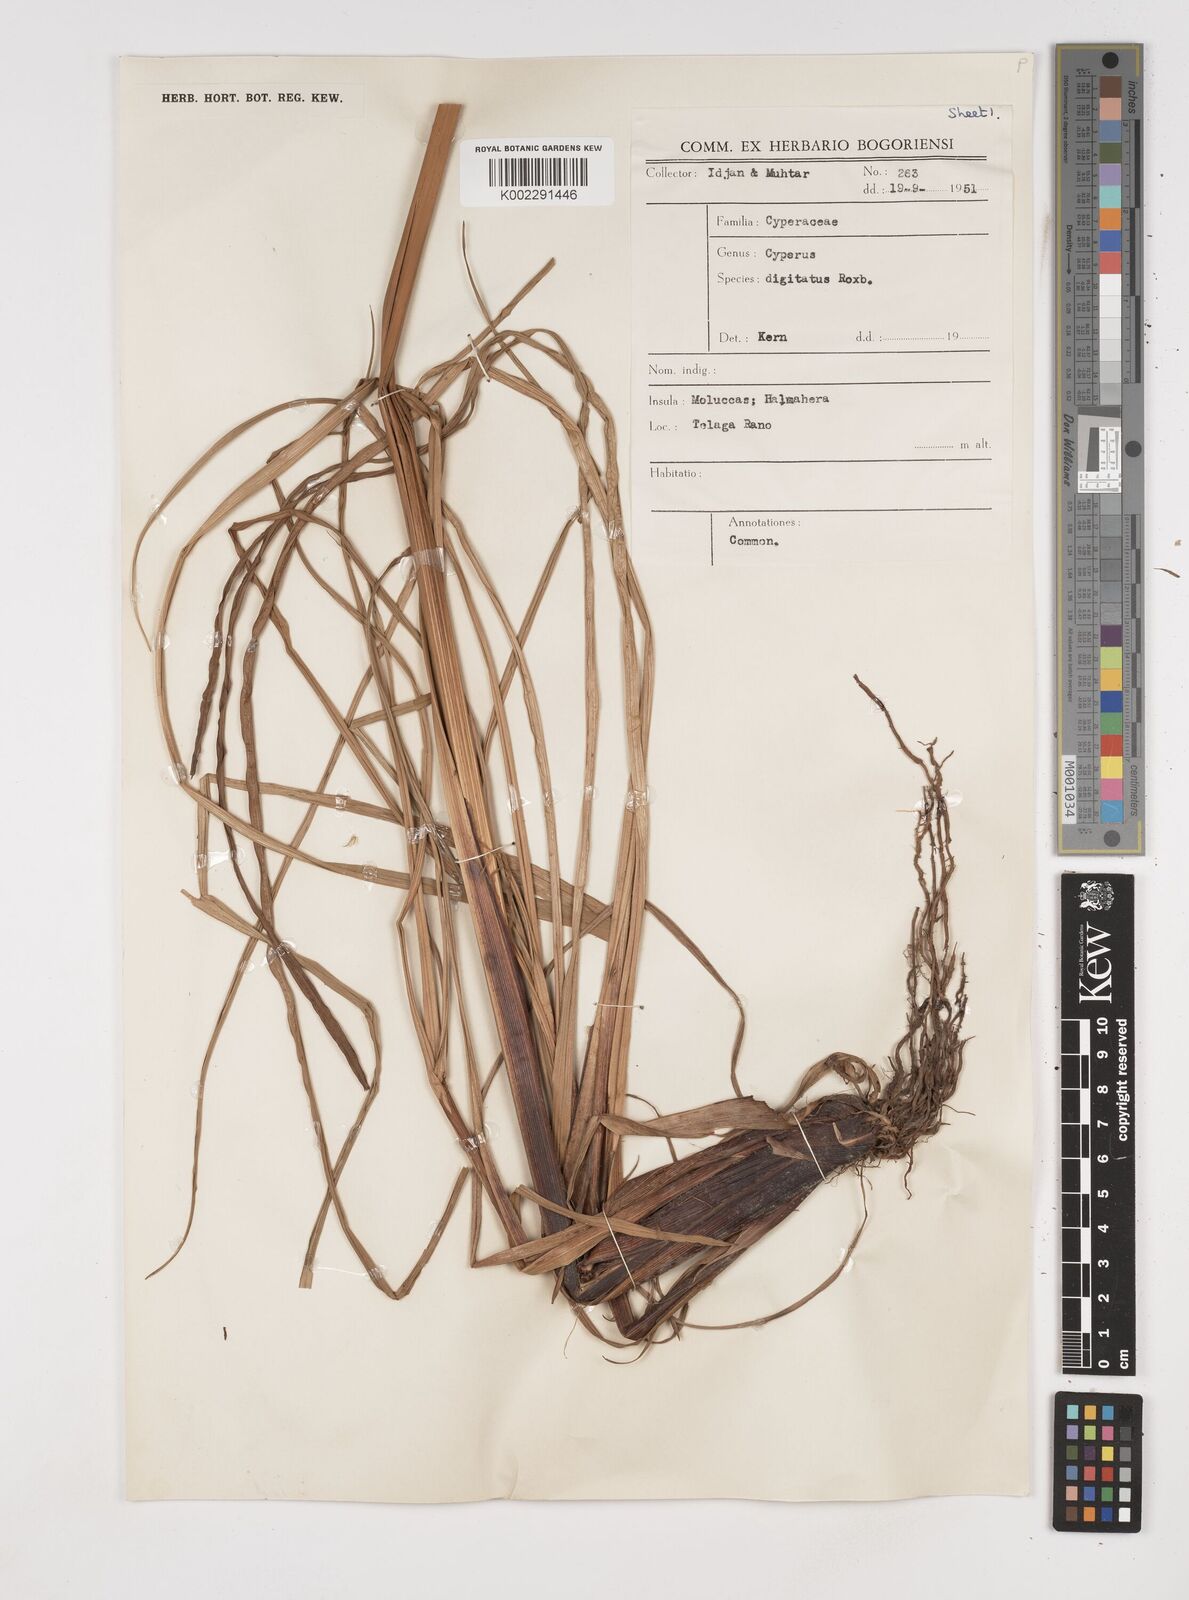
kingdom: Plantae
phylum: Tracheophyta
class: Liliopsida
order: Poales
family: Cyperaceae
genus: Cyperus
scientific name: Cyperus digitatus
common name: Finger flatsedge
